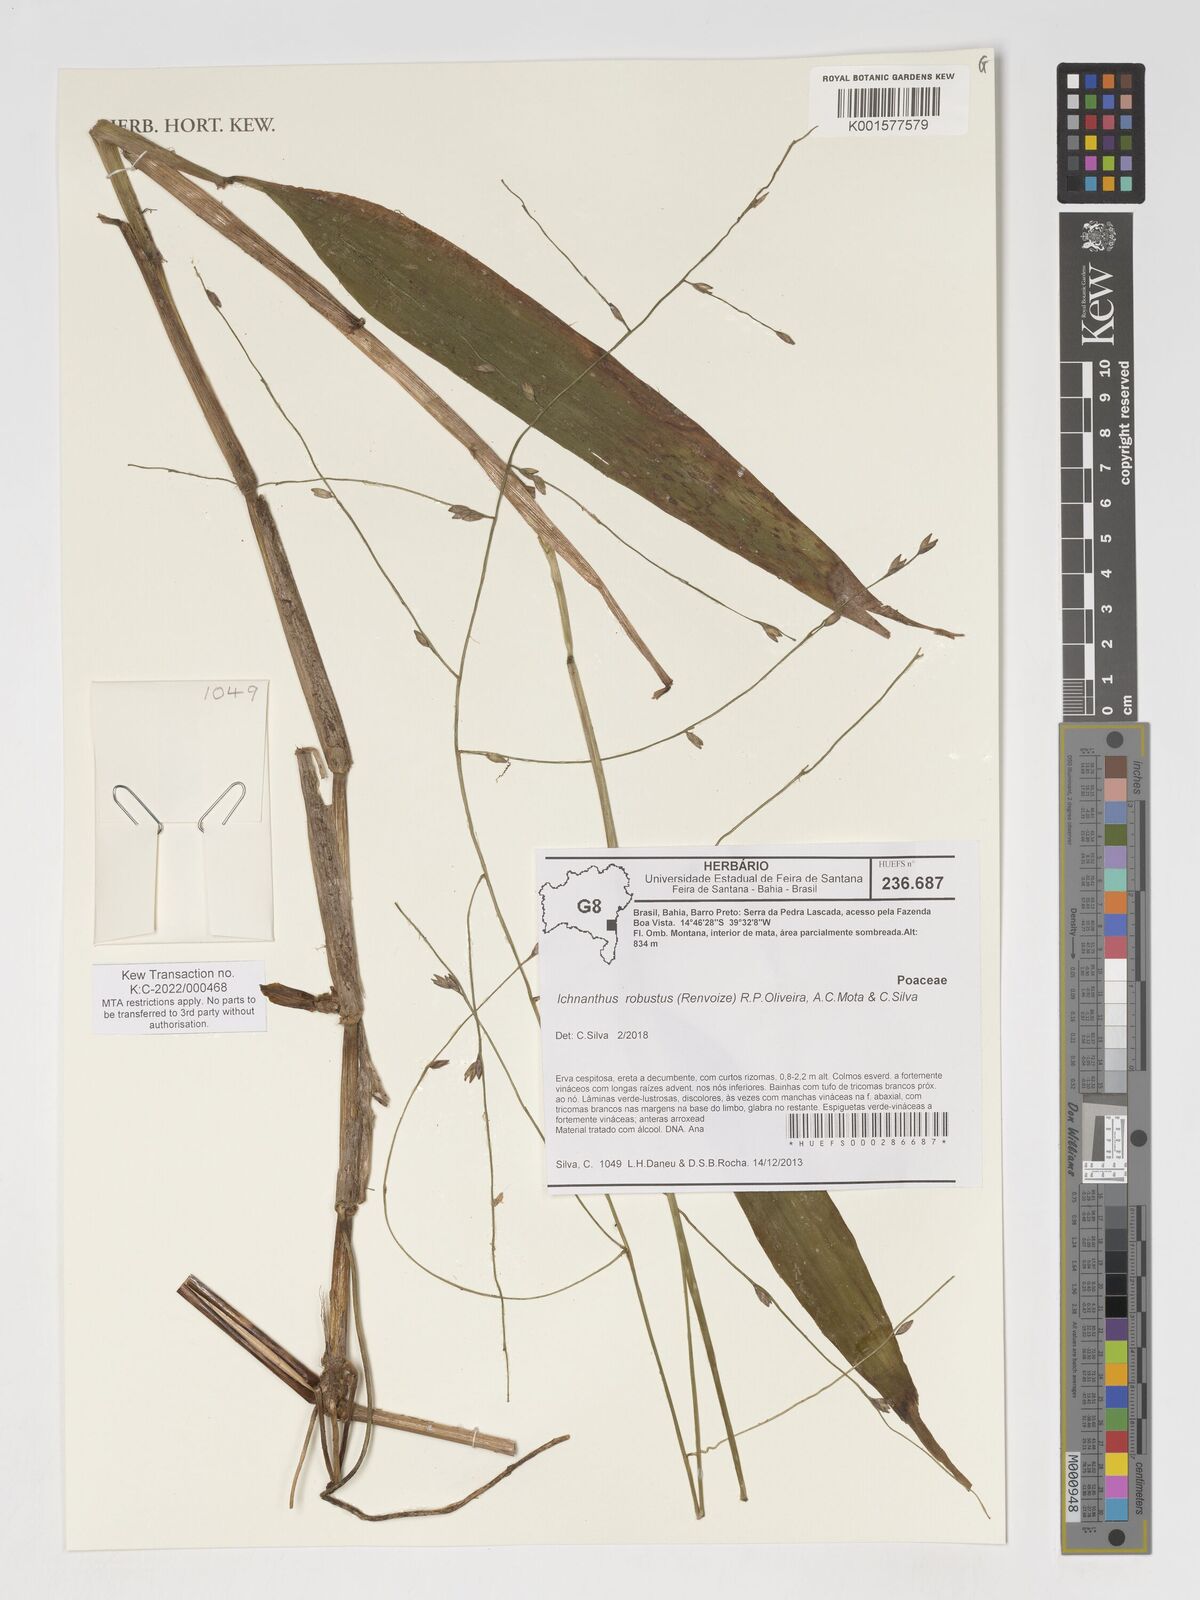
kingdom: Plantae
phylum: Tracheophyta
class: Liliopsida
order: Poales
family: Poaceae
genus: Ichnanthus
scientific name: Ichnanthus robustus
